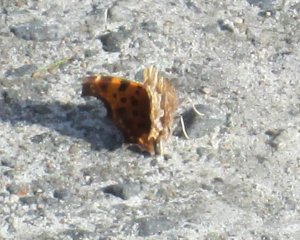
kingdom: Animalia
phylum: Arthropoda
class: Insecta
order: Lepidoptera
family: Nymphalidae
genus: Polygonia
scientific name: Polygonia comma
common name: Eastern Comma
